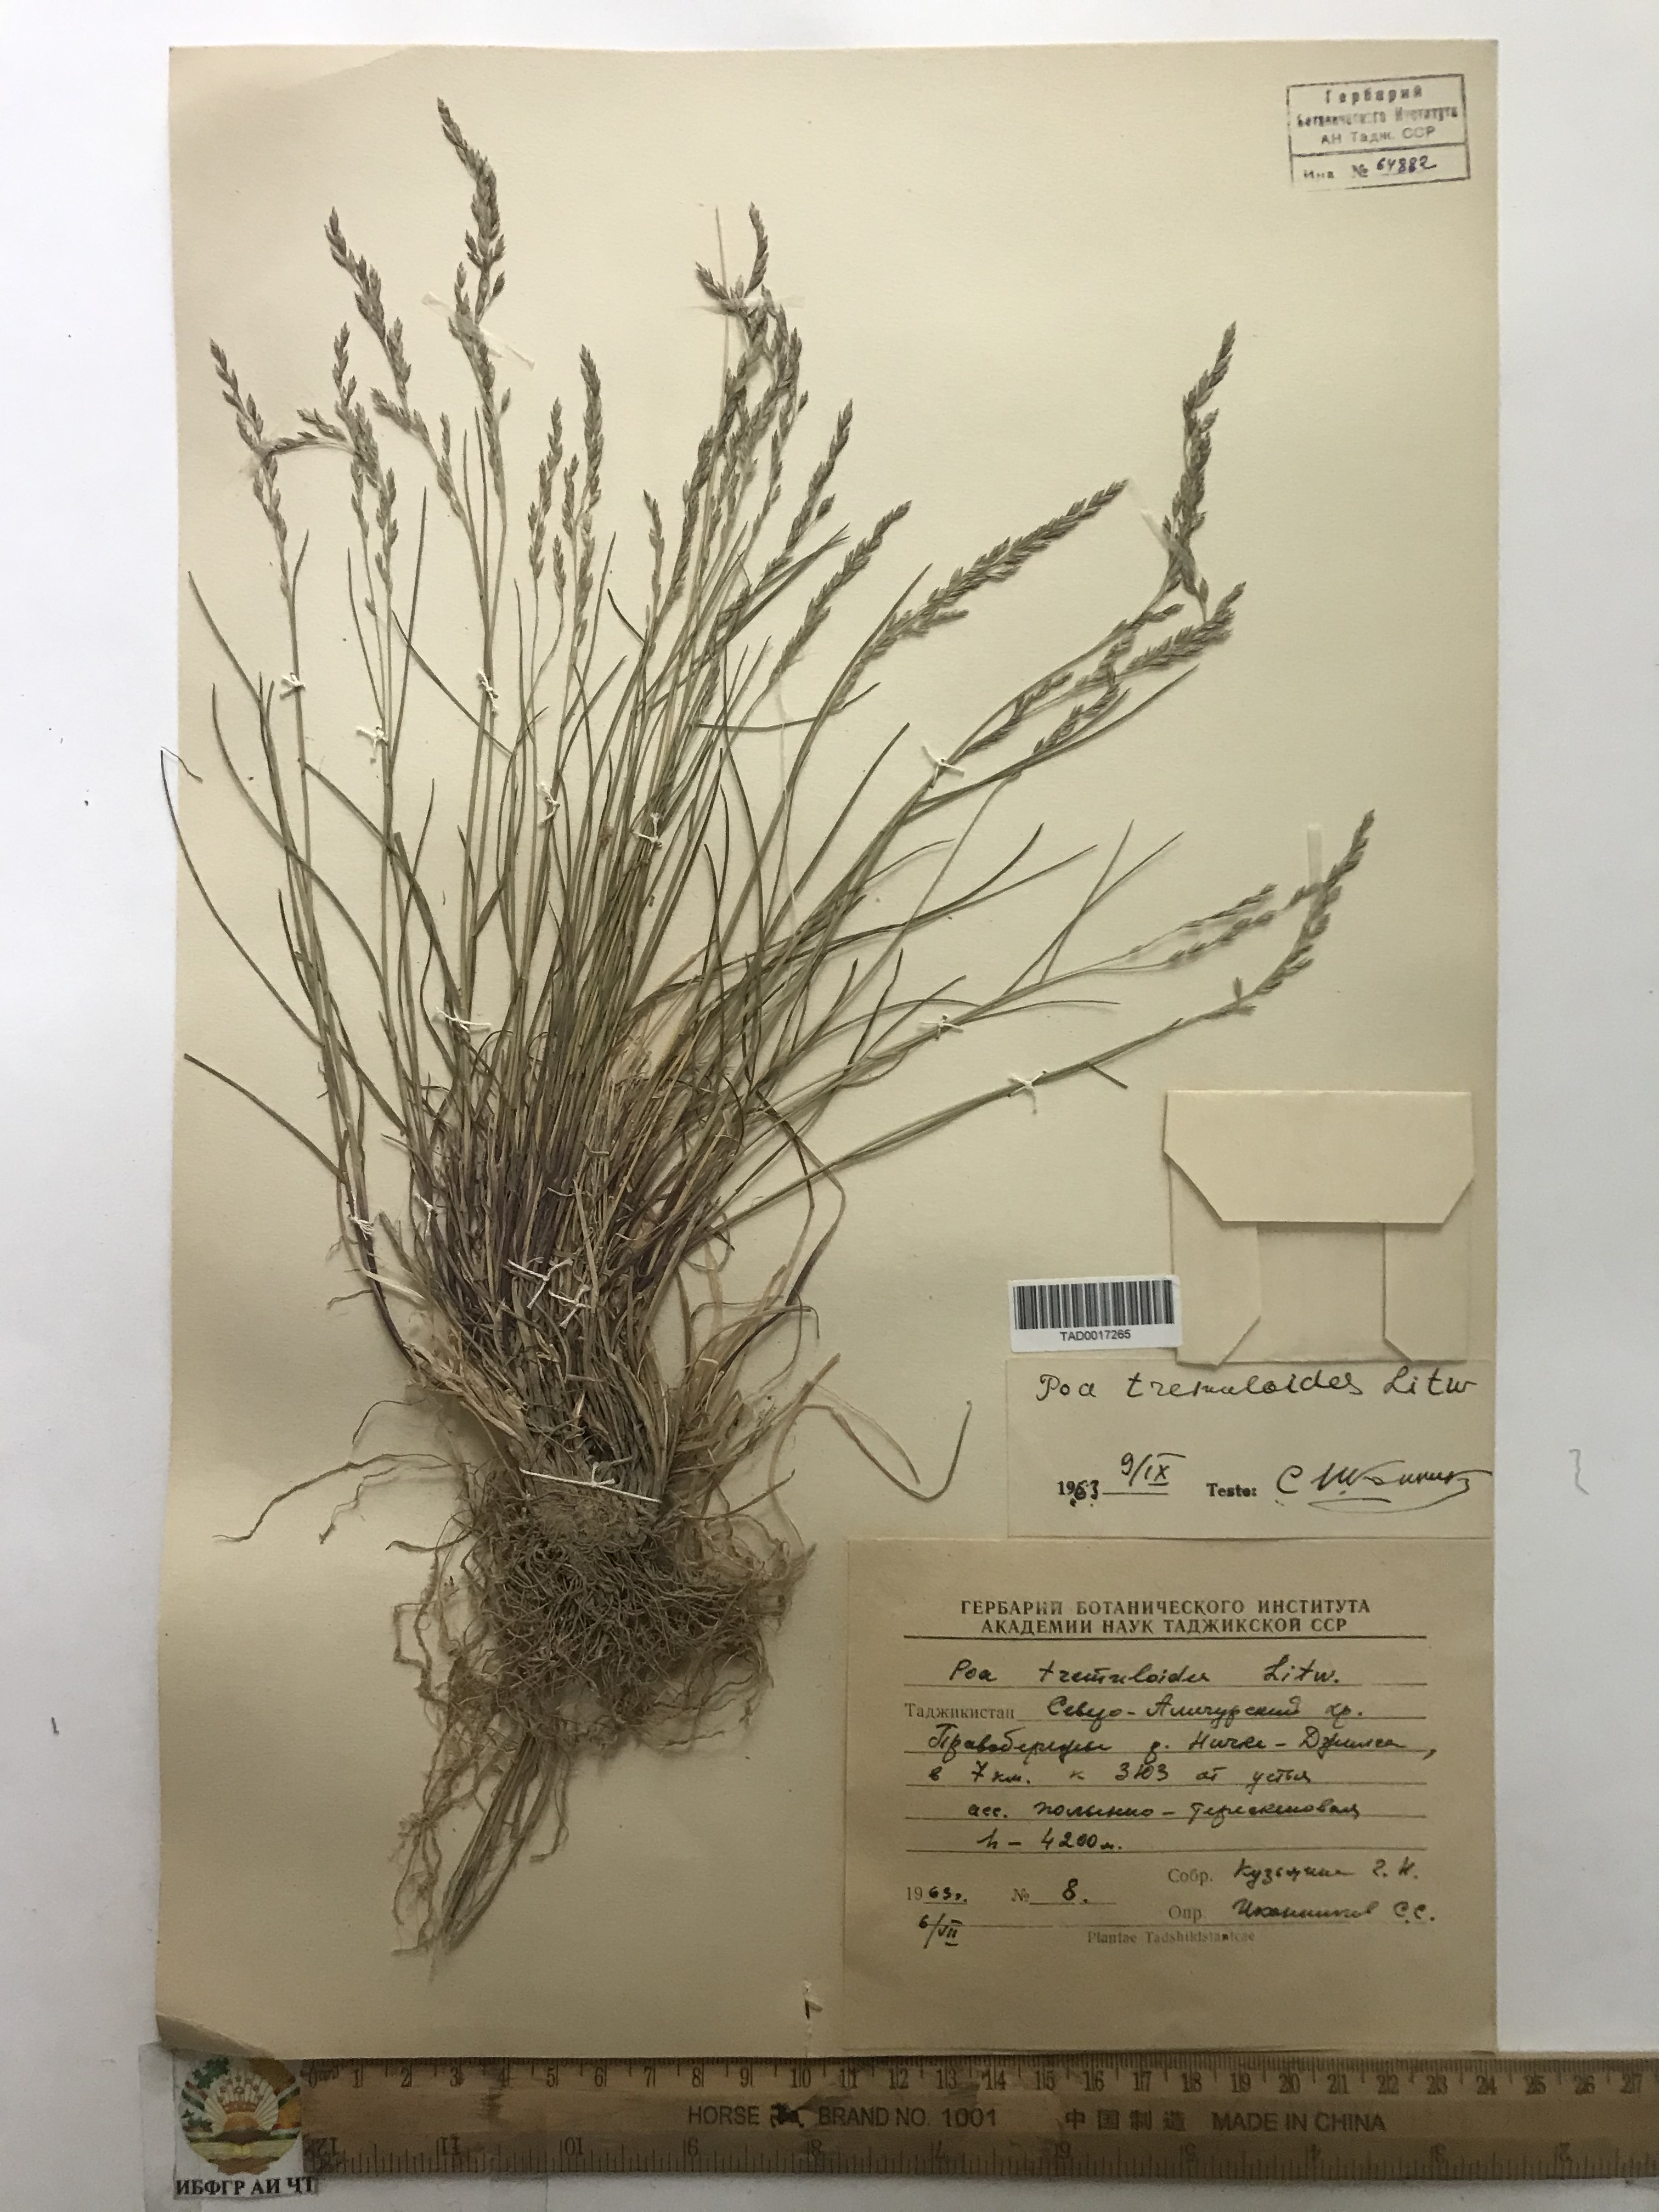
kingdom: Plantae
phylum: Tracheophyta
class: Liliopsida
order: Poales
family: Poaceae
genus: Poa
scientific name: Poa glauca
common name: Glaucous bluegrass
